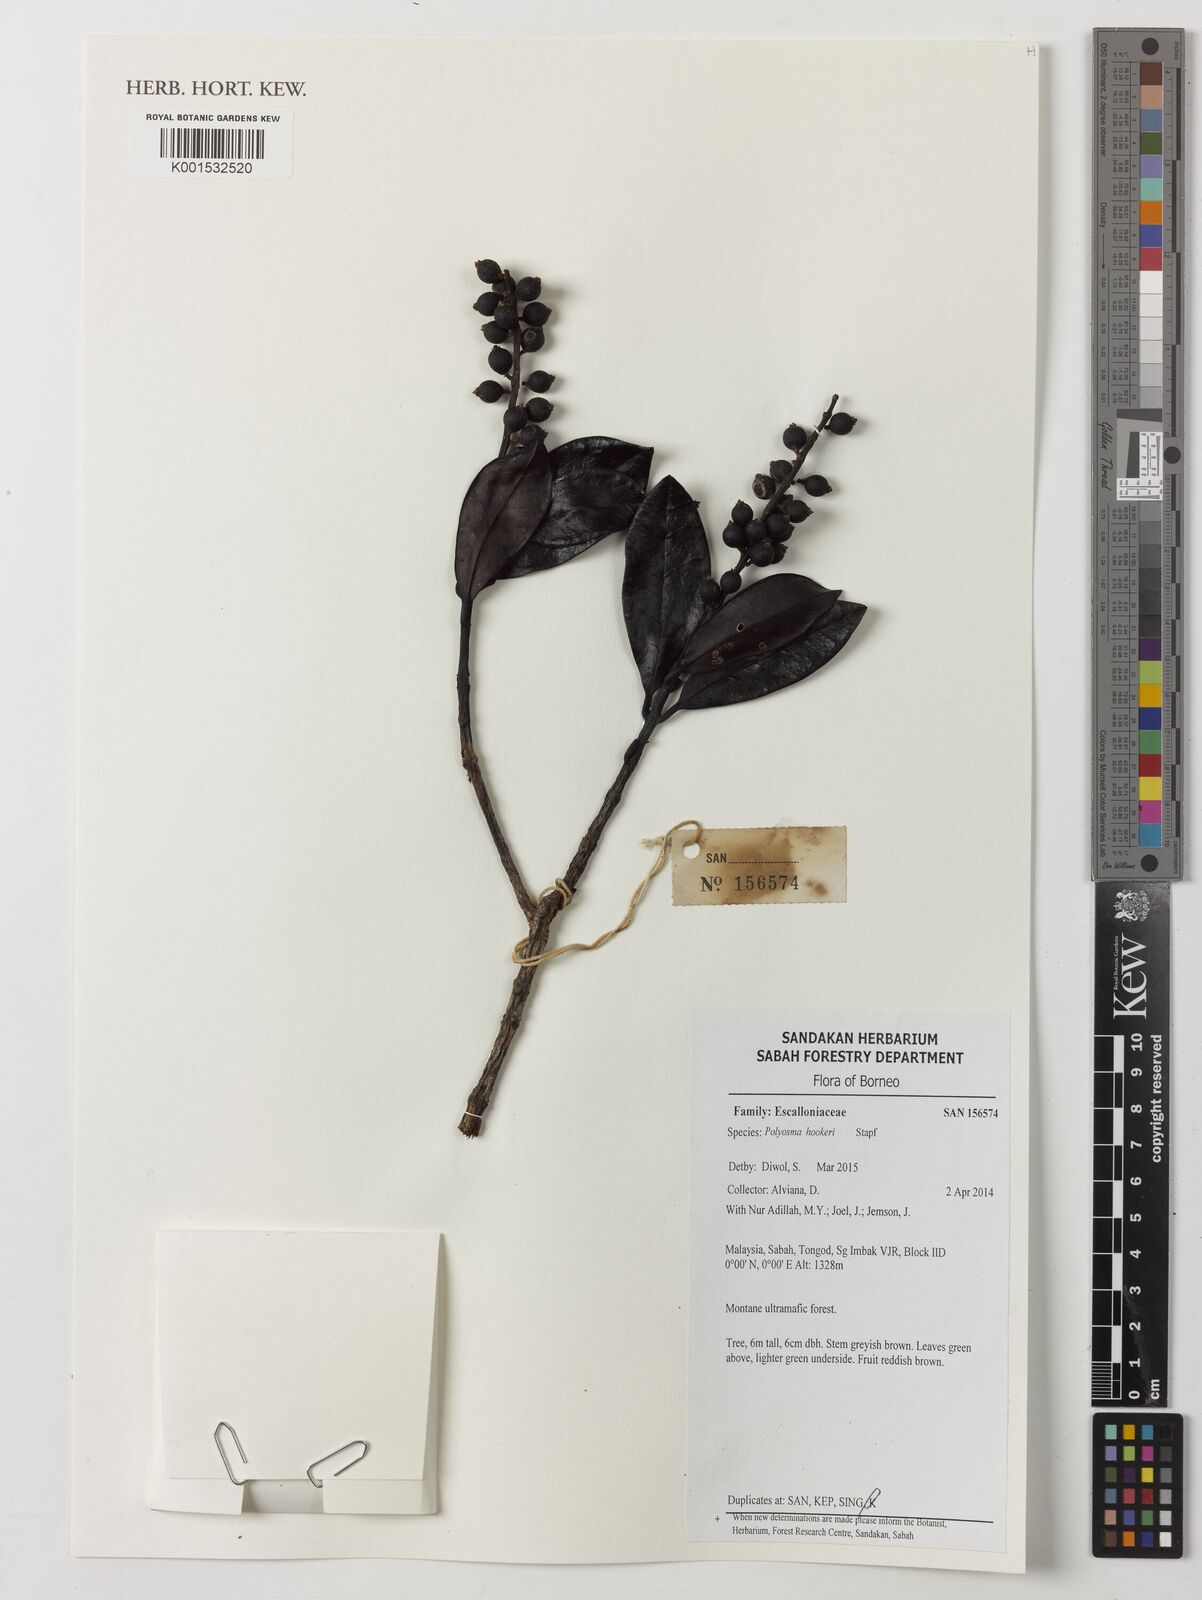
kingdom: Plantae
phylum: Tracheophyta
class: Magnoliopsida
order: Escalloniales
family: Escalloniaceae
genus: Polyosma
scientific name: Polyosma hookeri
